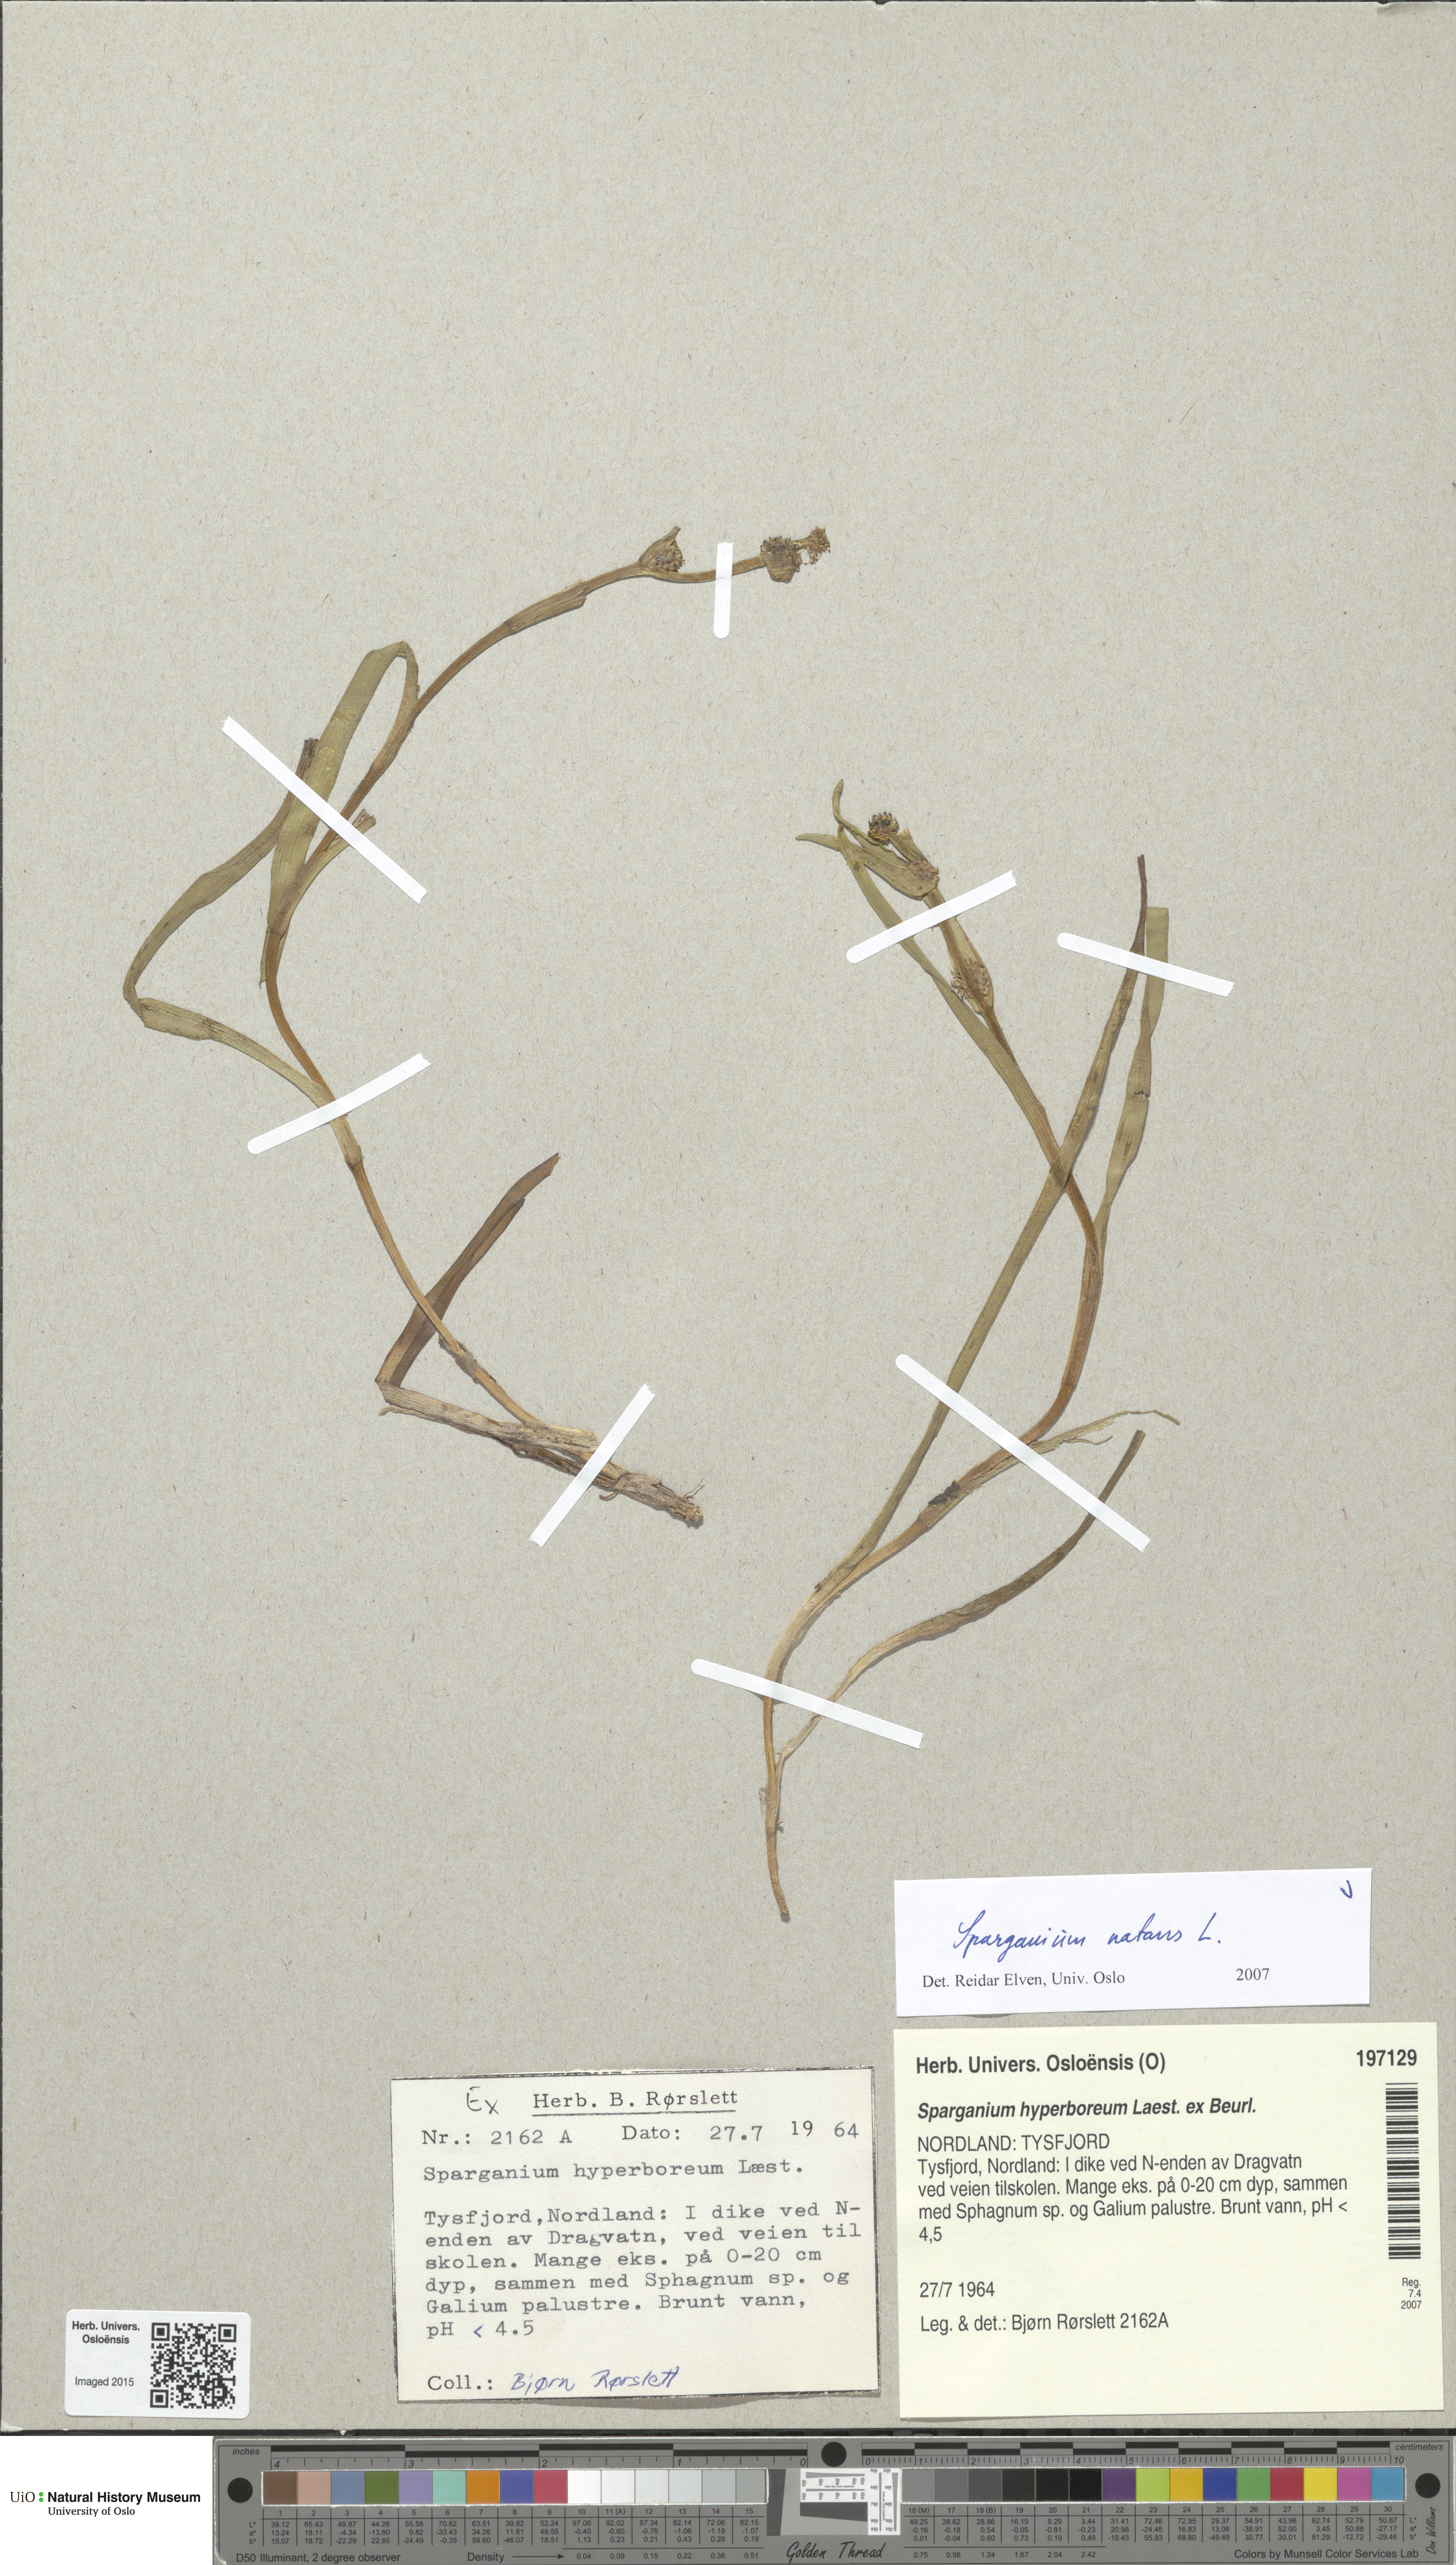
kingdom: Plantae
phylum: Tracheophyta
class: Liliopsida
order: Poales
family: Typhaceae
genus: Sparganium
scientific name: Sparganium natans
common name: Least bur-reed
